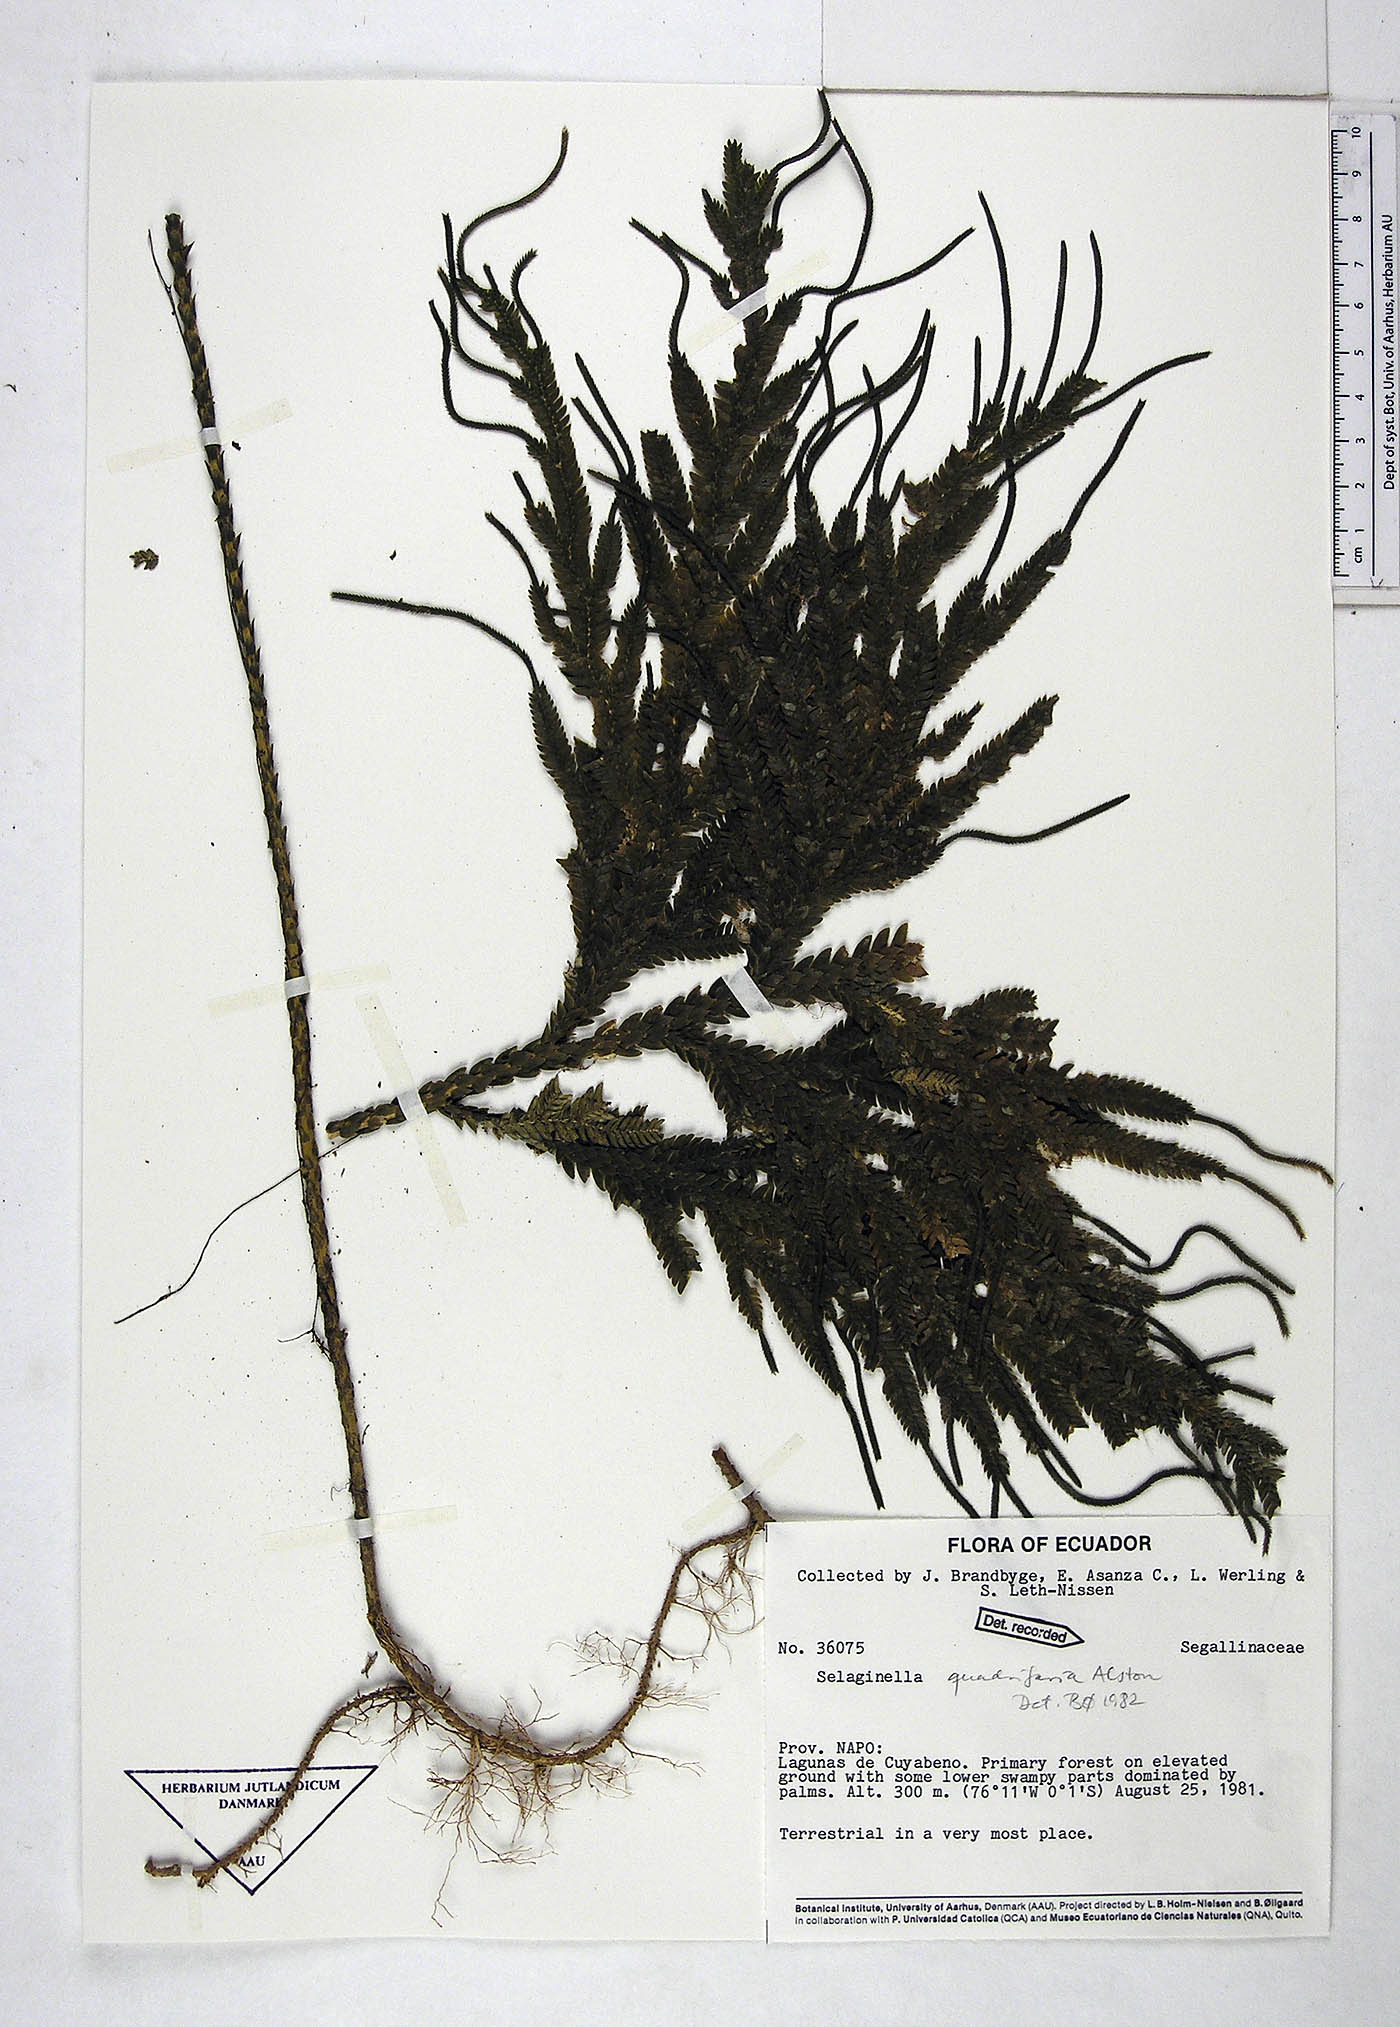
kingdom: Plantae
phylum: Tracheophyta
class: Lycopodiopsida
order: Selaginellales
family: Selaginellaceae
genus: Selaginella
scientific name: Selaginella quadrifaria
